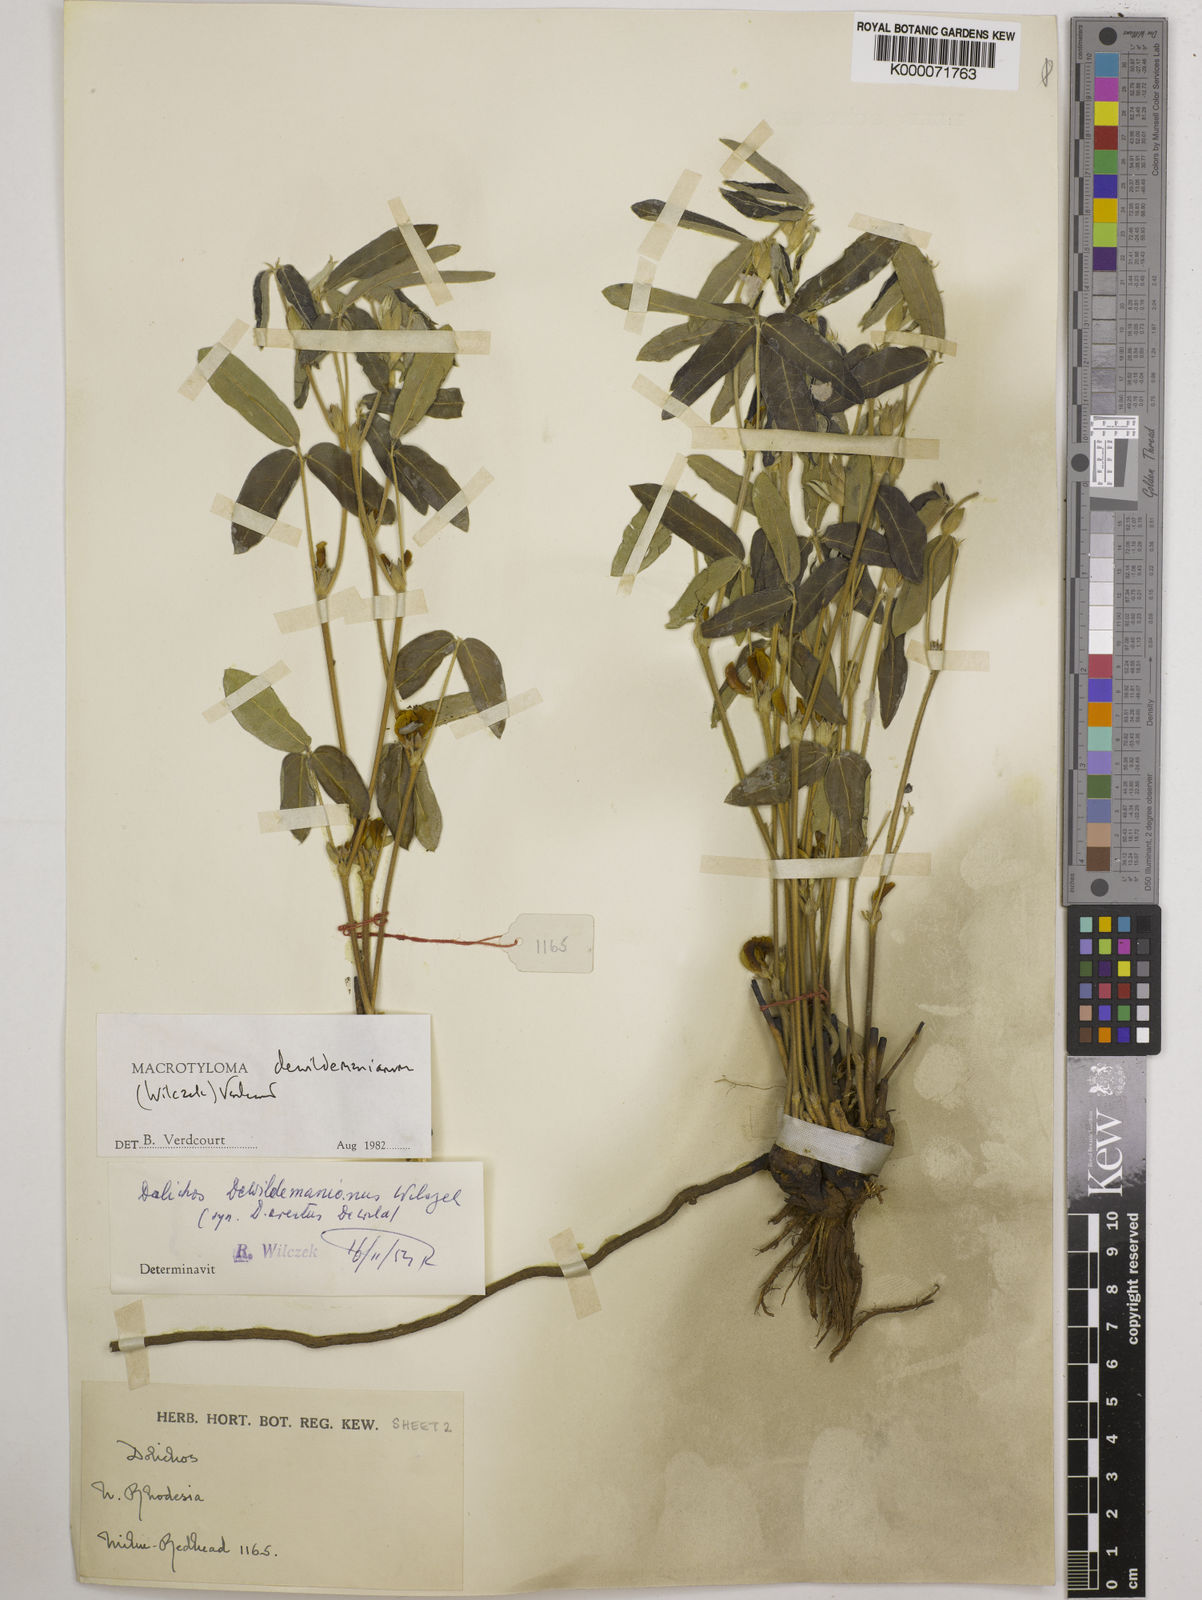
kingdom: Plantae
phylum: Tracheophyta
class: Magnoliopsida
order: Fabales
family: Fabaceae
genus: Macrotyloma
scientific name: Macrotyloma dewildemanianum
